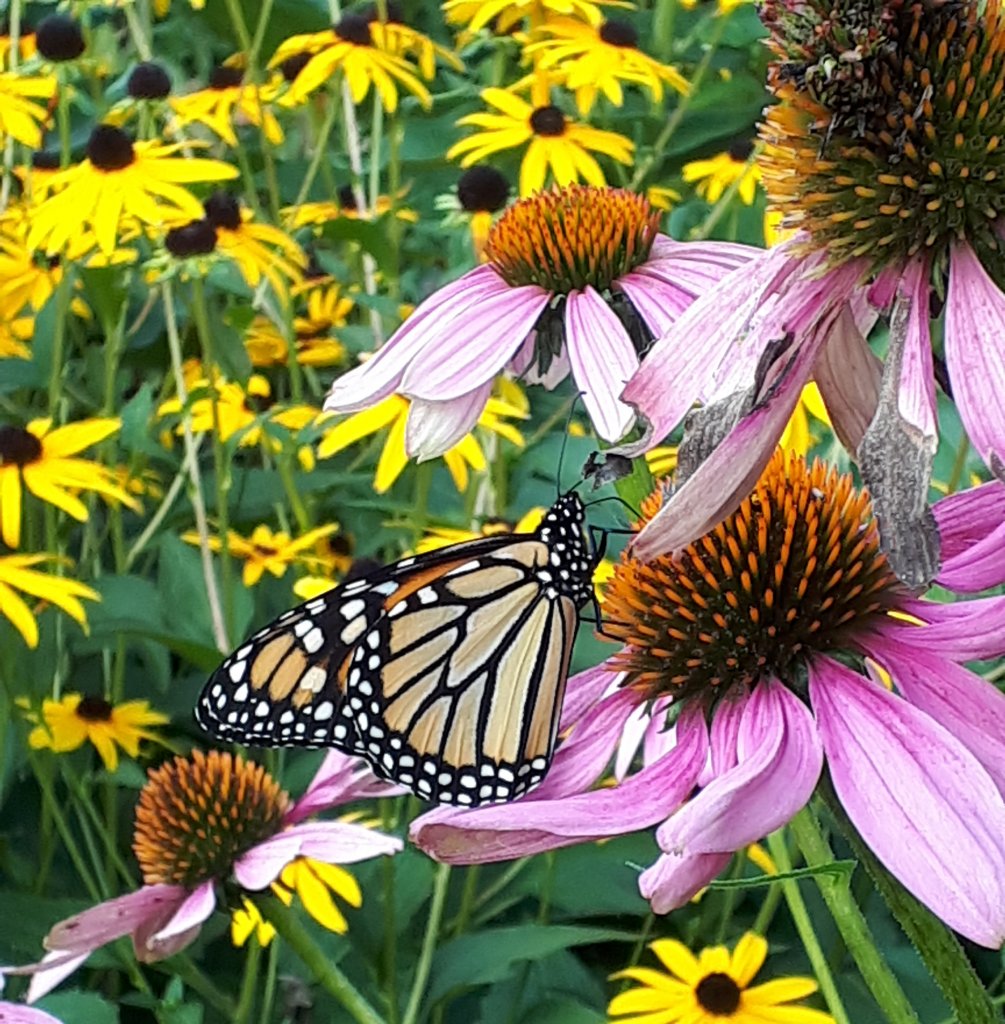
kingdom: Animalia
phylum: Arthropoda
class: Insecta
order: Lepidoptera
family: Nymphalidae
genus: Danaus
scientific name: Danaus plexippus
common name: Monarch
